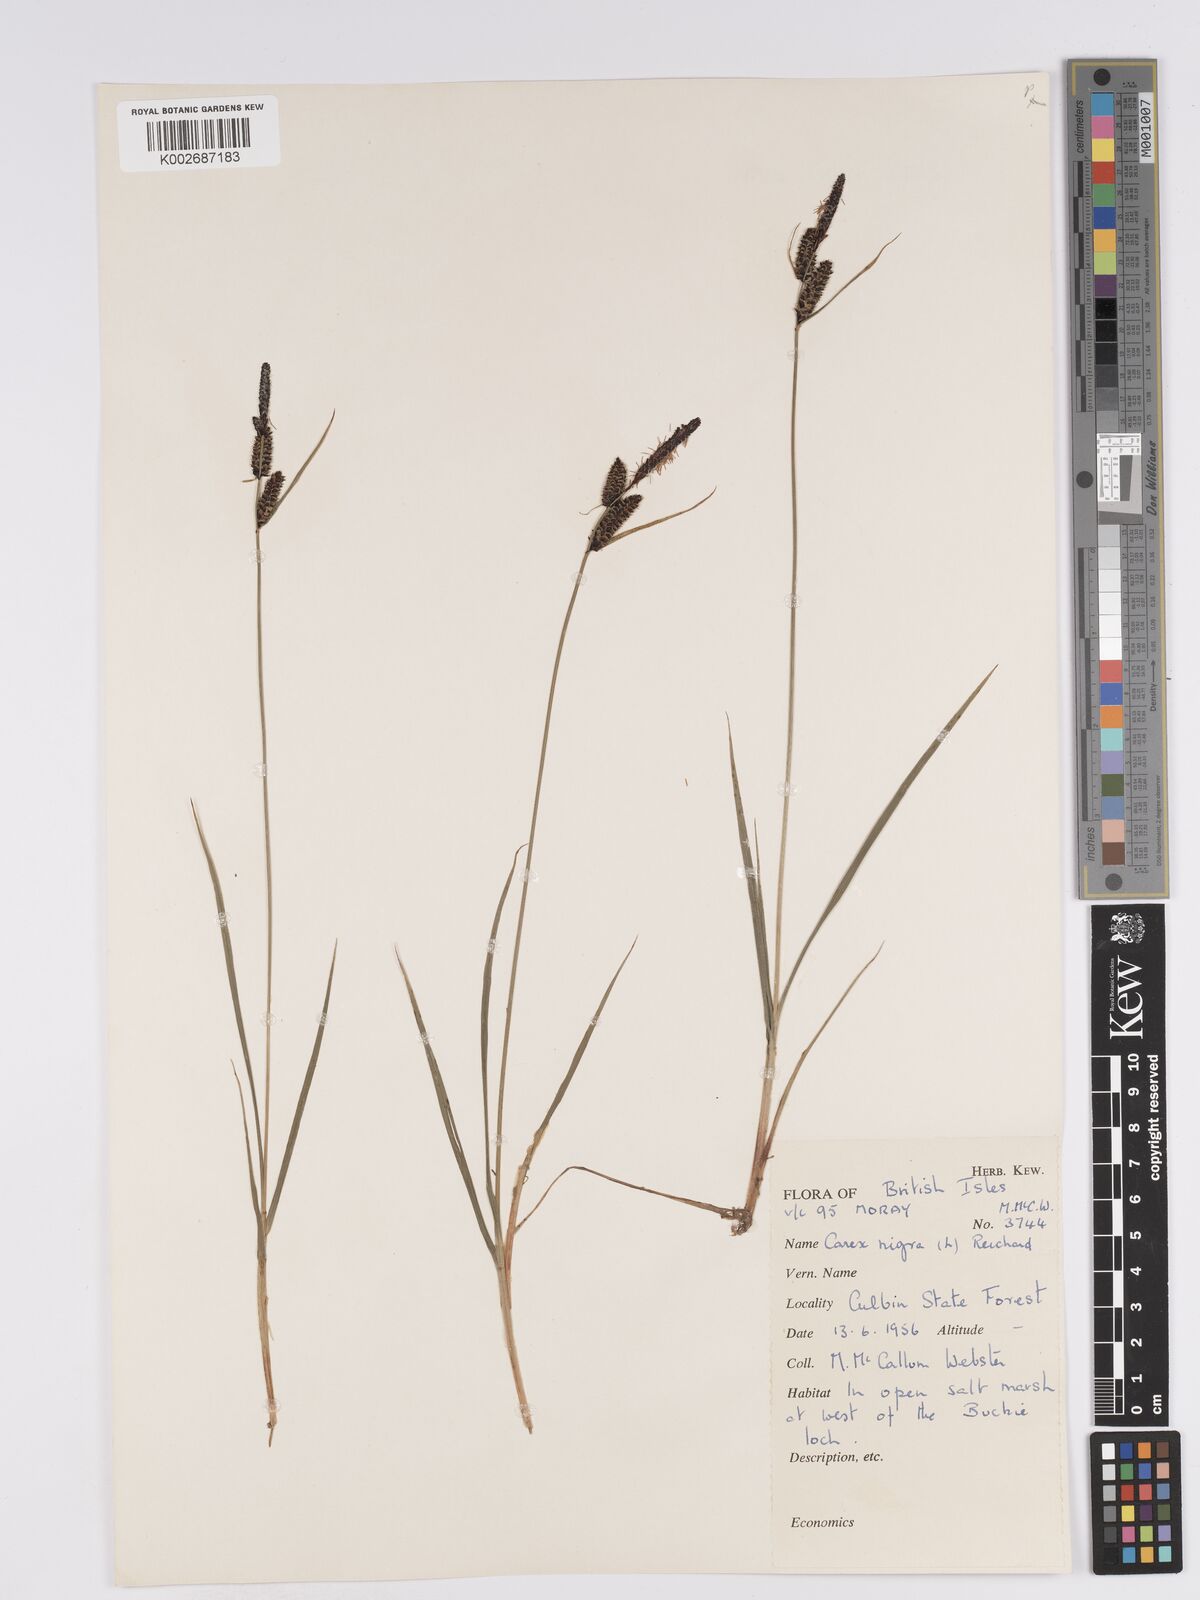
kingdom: Plantae
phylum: Tracheophyta
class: Liliopsida
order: Poales
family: Cyperaceae
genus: Carex
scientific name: Carex nigra
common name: Common sedge
